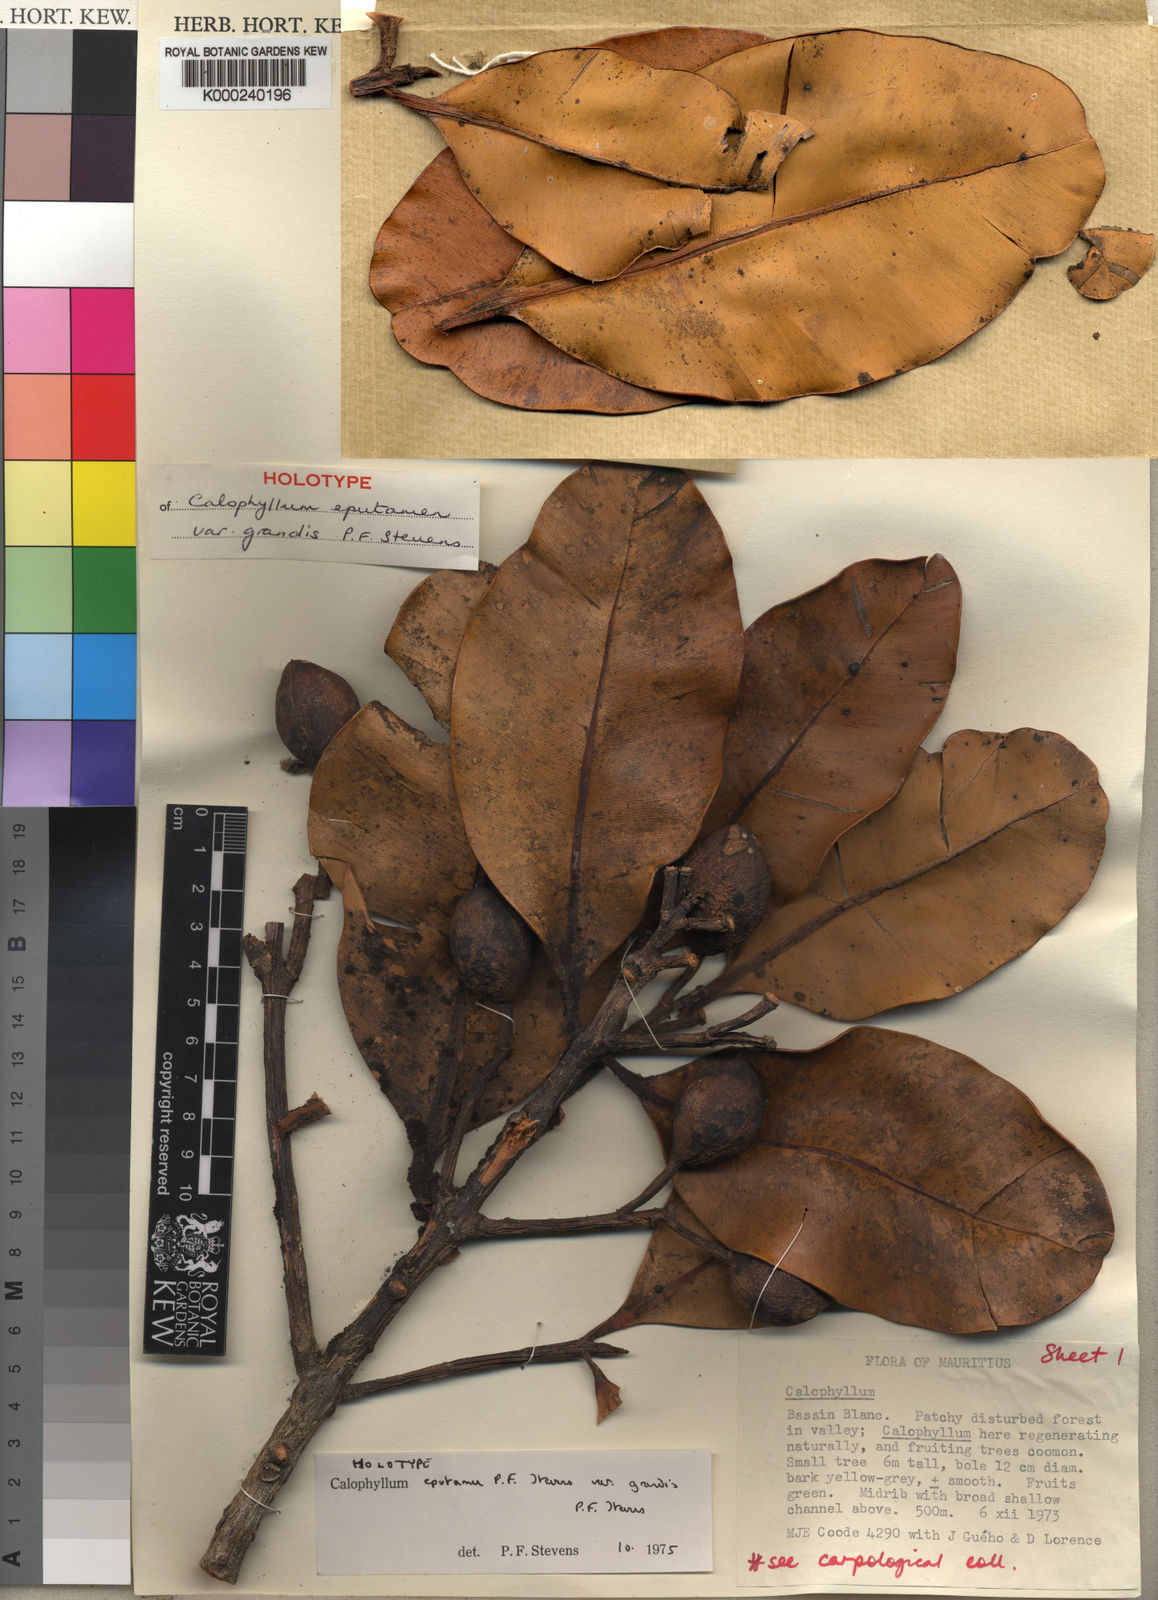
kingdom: Plantae
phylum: Tracheophyta
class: Magnoliopsida
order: Malpighiales
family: Calophyllaceae
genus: Calophyllum
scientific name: Calophyllum eputamen
